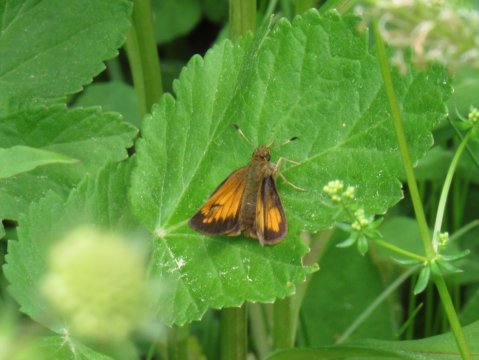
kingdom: Animalia
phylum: Arthropoda
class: Insecta
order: Lepidoptera
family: Hesperiidae
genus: Lon
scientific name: Lon hobomok
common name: Hobomok Skipper
